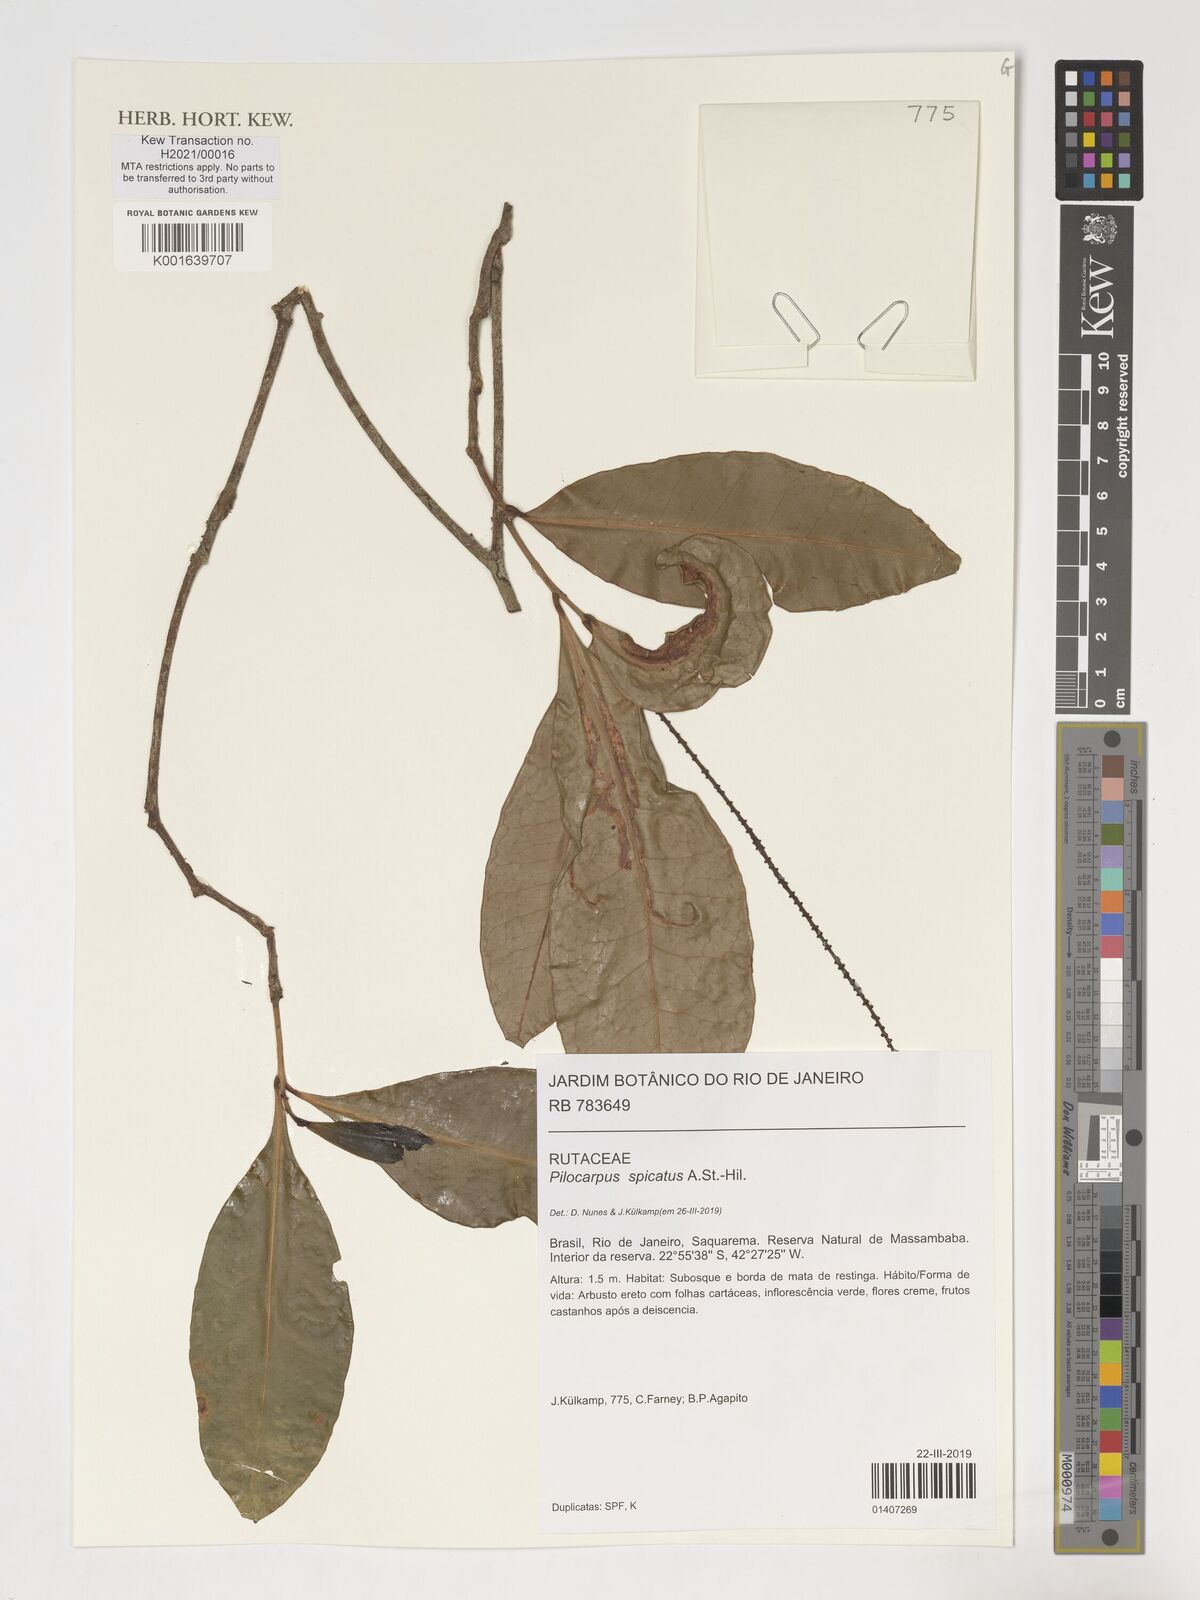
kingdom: Plantae
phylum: Tracheophyta
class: Magnoliopsida
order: Sapindales
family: Rutaceae
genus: Pilocarpus
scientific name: Pilocarpus spicatus
